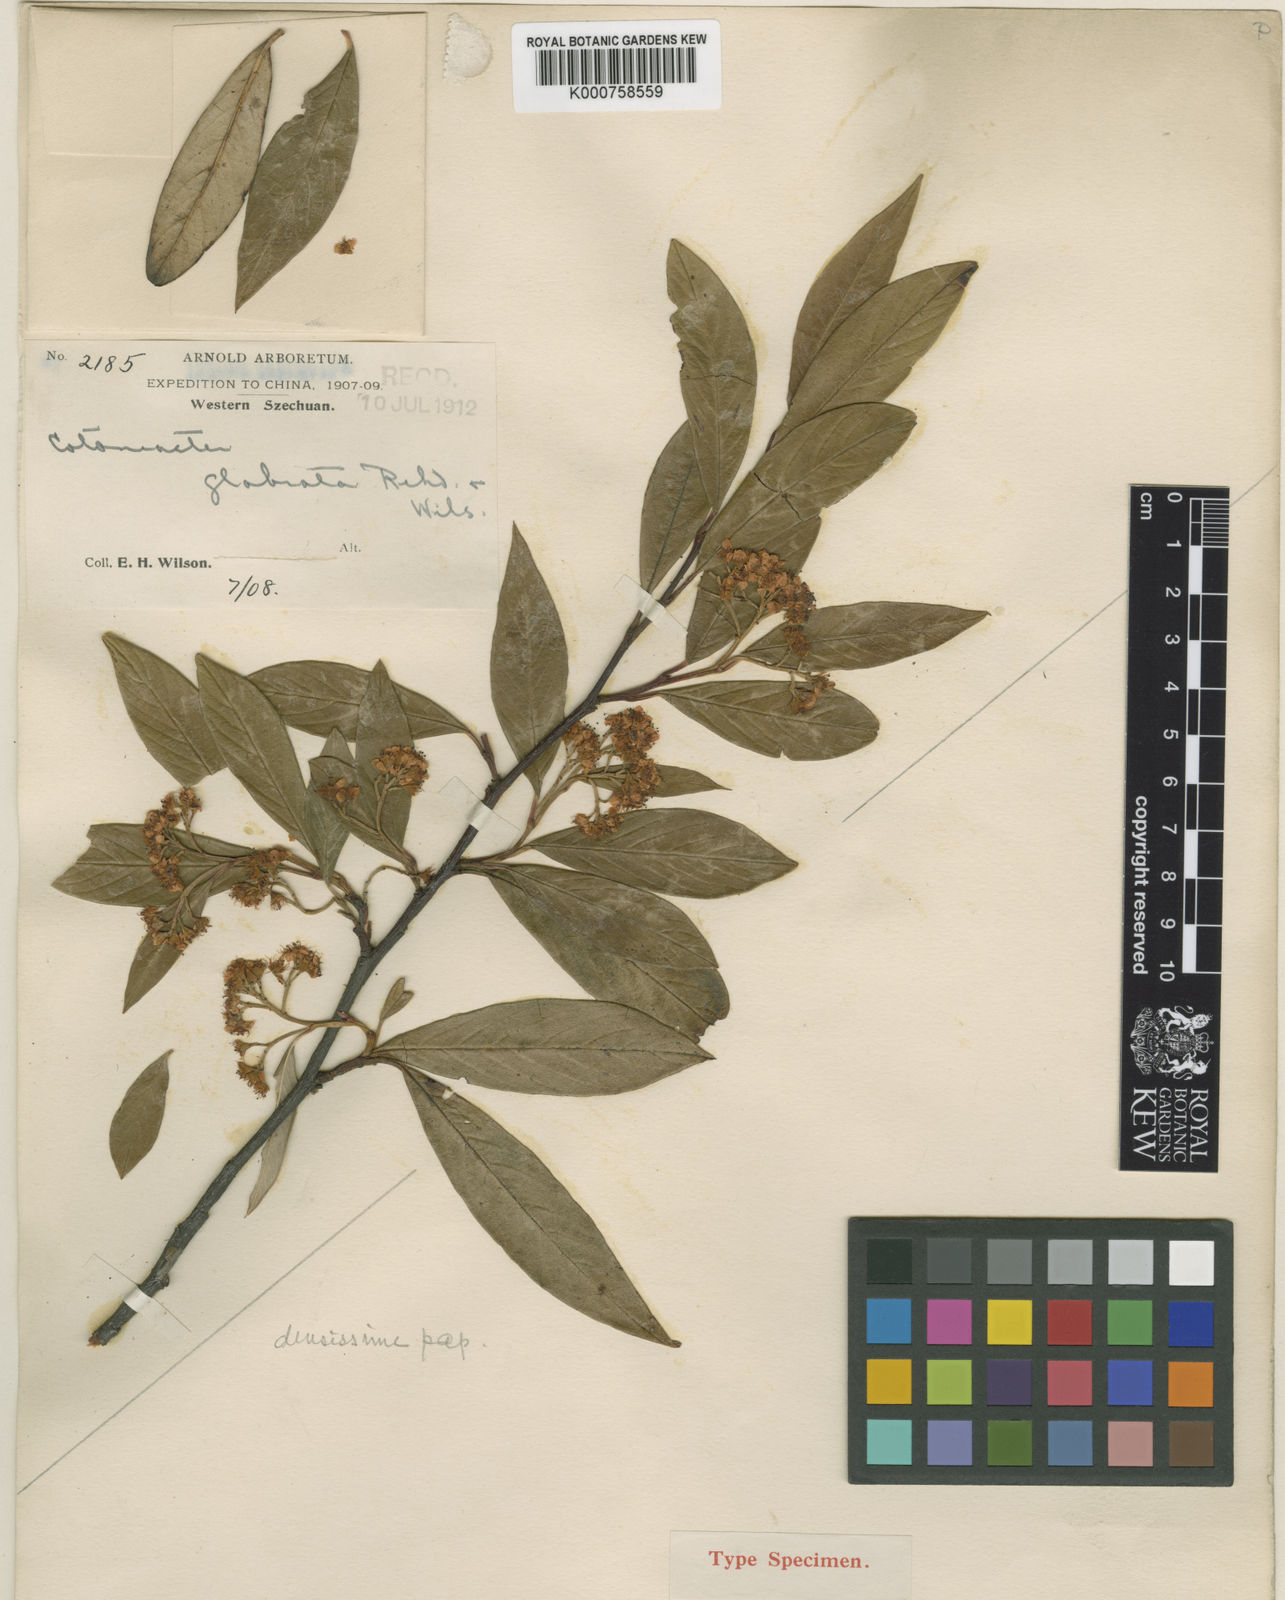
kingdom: Plantae
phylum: Tracheophyta
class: Magnoliopsida
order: Rosales
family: Rosaceae
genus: Cotoneaster
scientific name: Cotoneaster glabratus
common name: Glabrous cotoneaster
